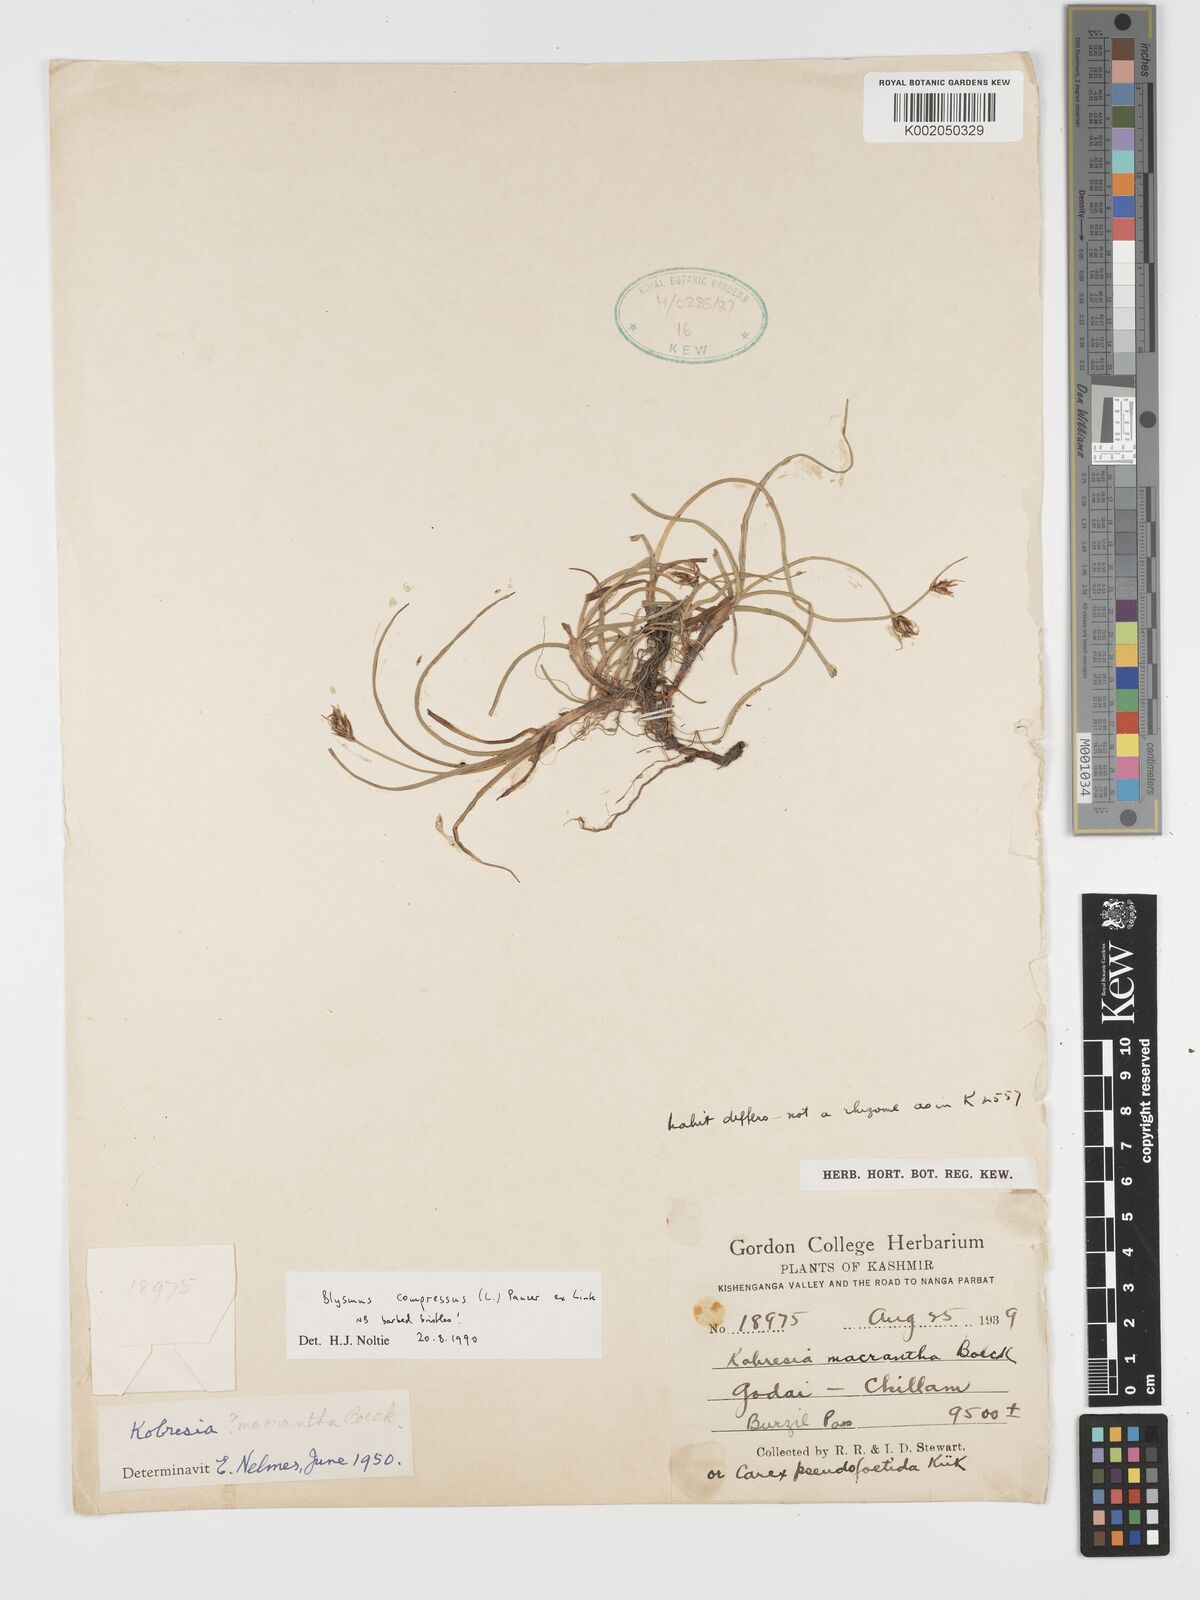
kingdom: Plantae
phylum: Tracheophyta
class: Liliopsida
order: Poales
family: Cyperaceae
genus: Blysmus
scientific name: Blysmus compressus
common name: Flat-sedge
